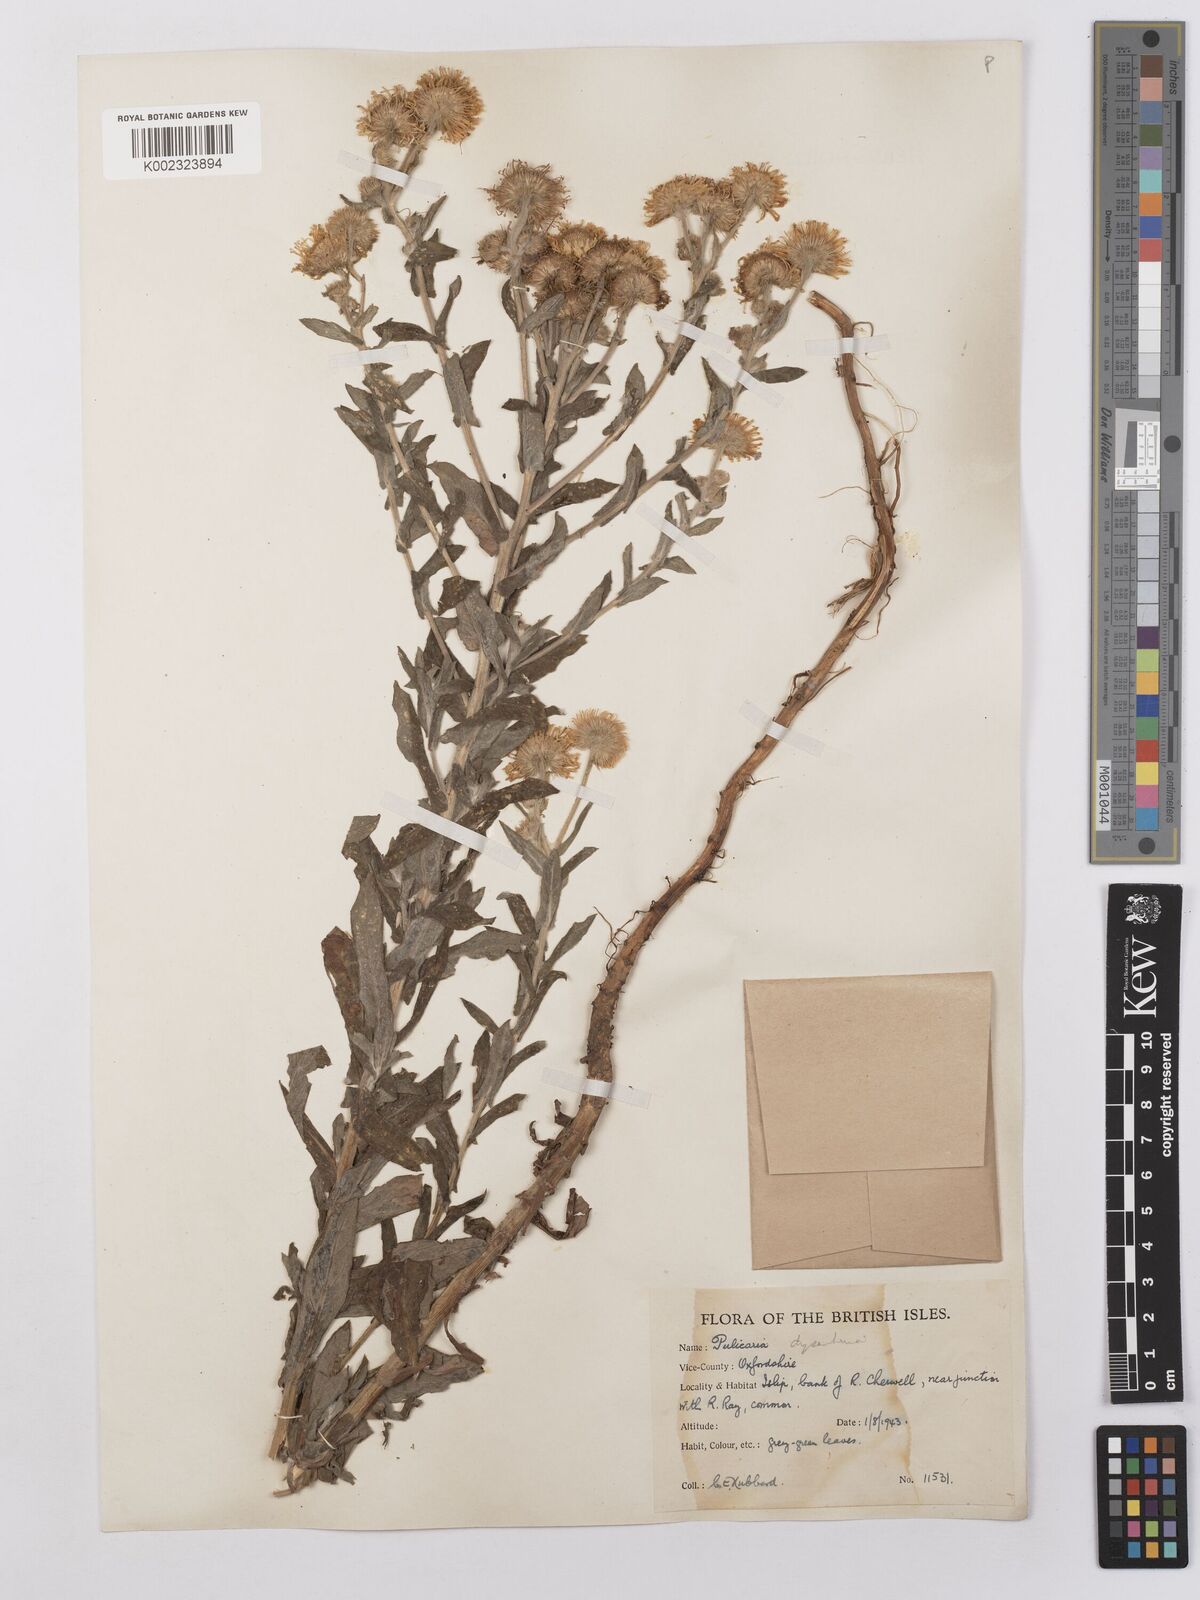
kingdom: Plantae
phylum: Tracheophyta
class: Magnoliopsida
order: Asterales
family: Asteraceae
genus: Pulicaria
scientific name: Pulicaria dysenterica
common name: Common fleabane
